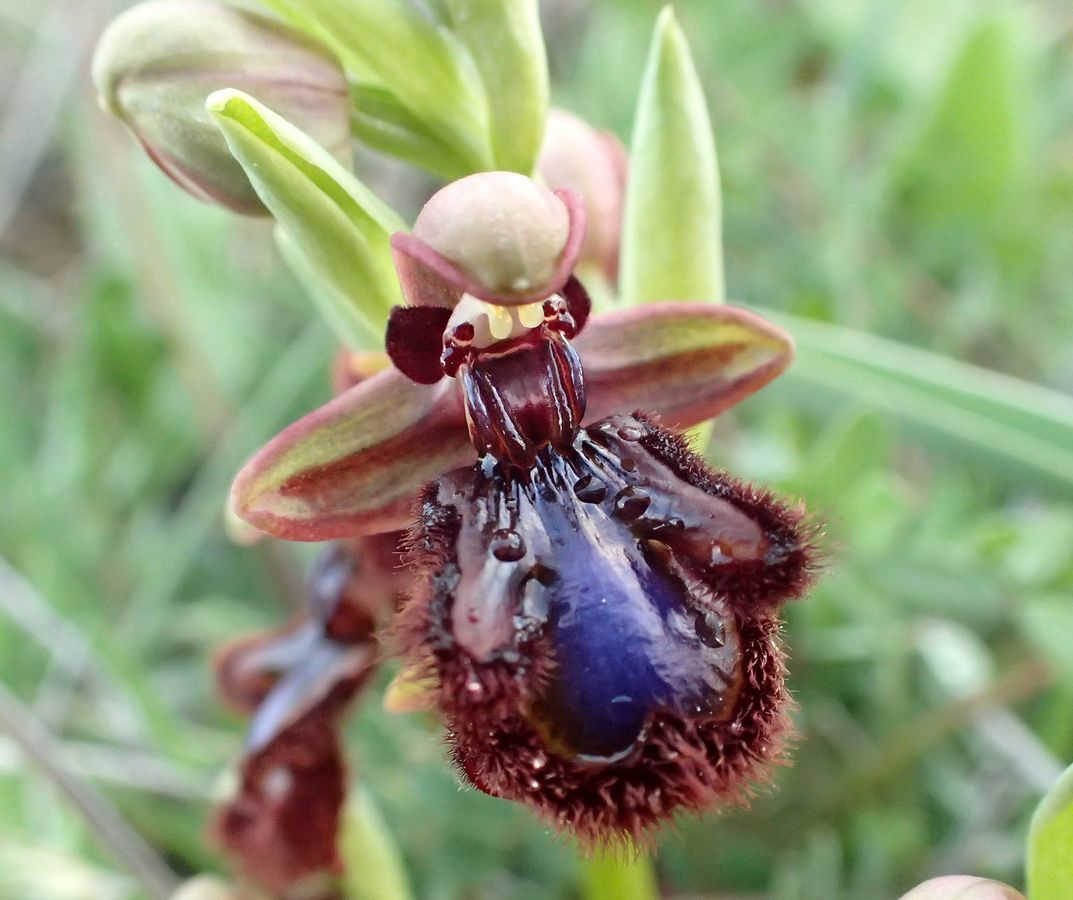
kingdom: Plantae
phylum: Tracheophyta
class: Liliopsida
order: Asparagales
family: Orchidaceae
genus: Ophrys
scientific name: Ophrys speculum
